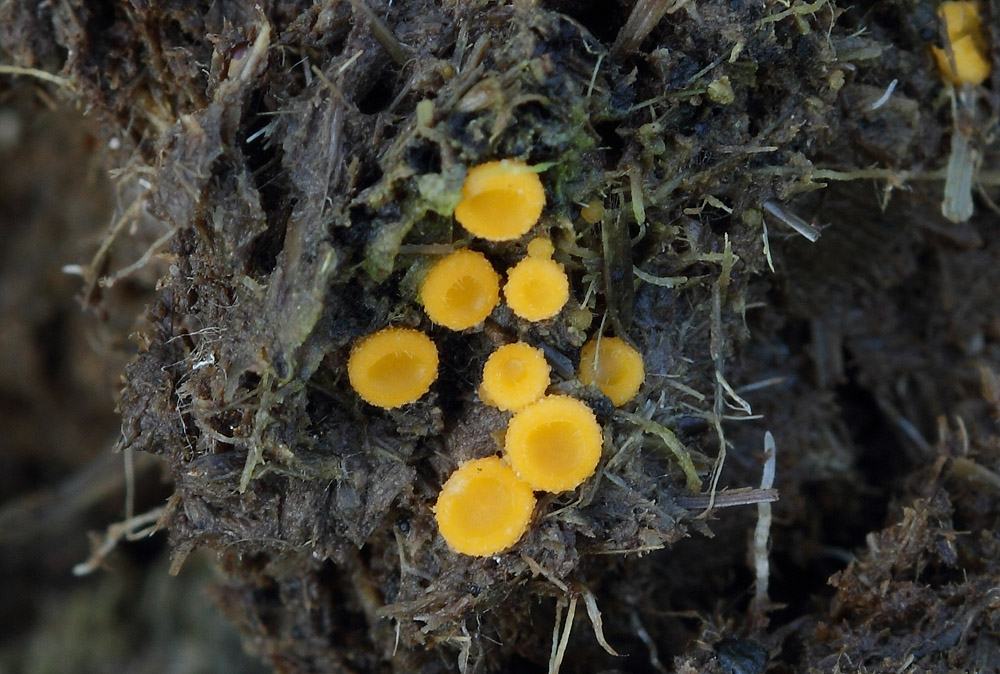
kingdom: Fungi
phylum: Ascomycota
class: Pezizomycetes
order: Pezizales
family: Pyronemataceae
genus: Cheilymenia
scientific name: Cheilymenia
